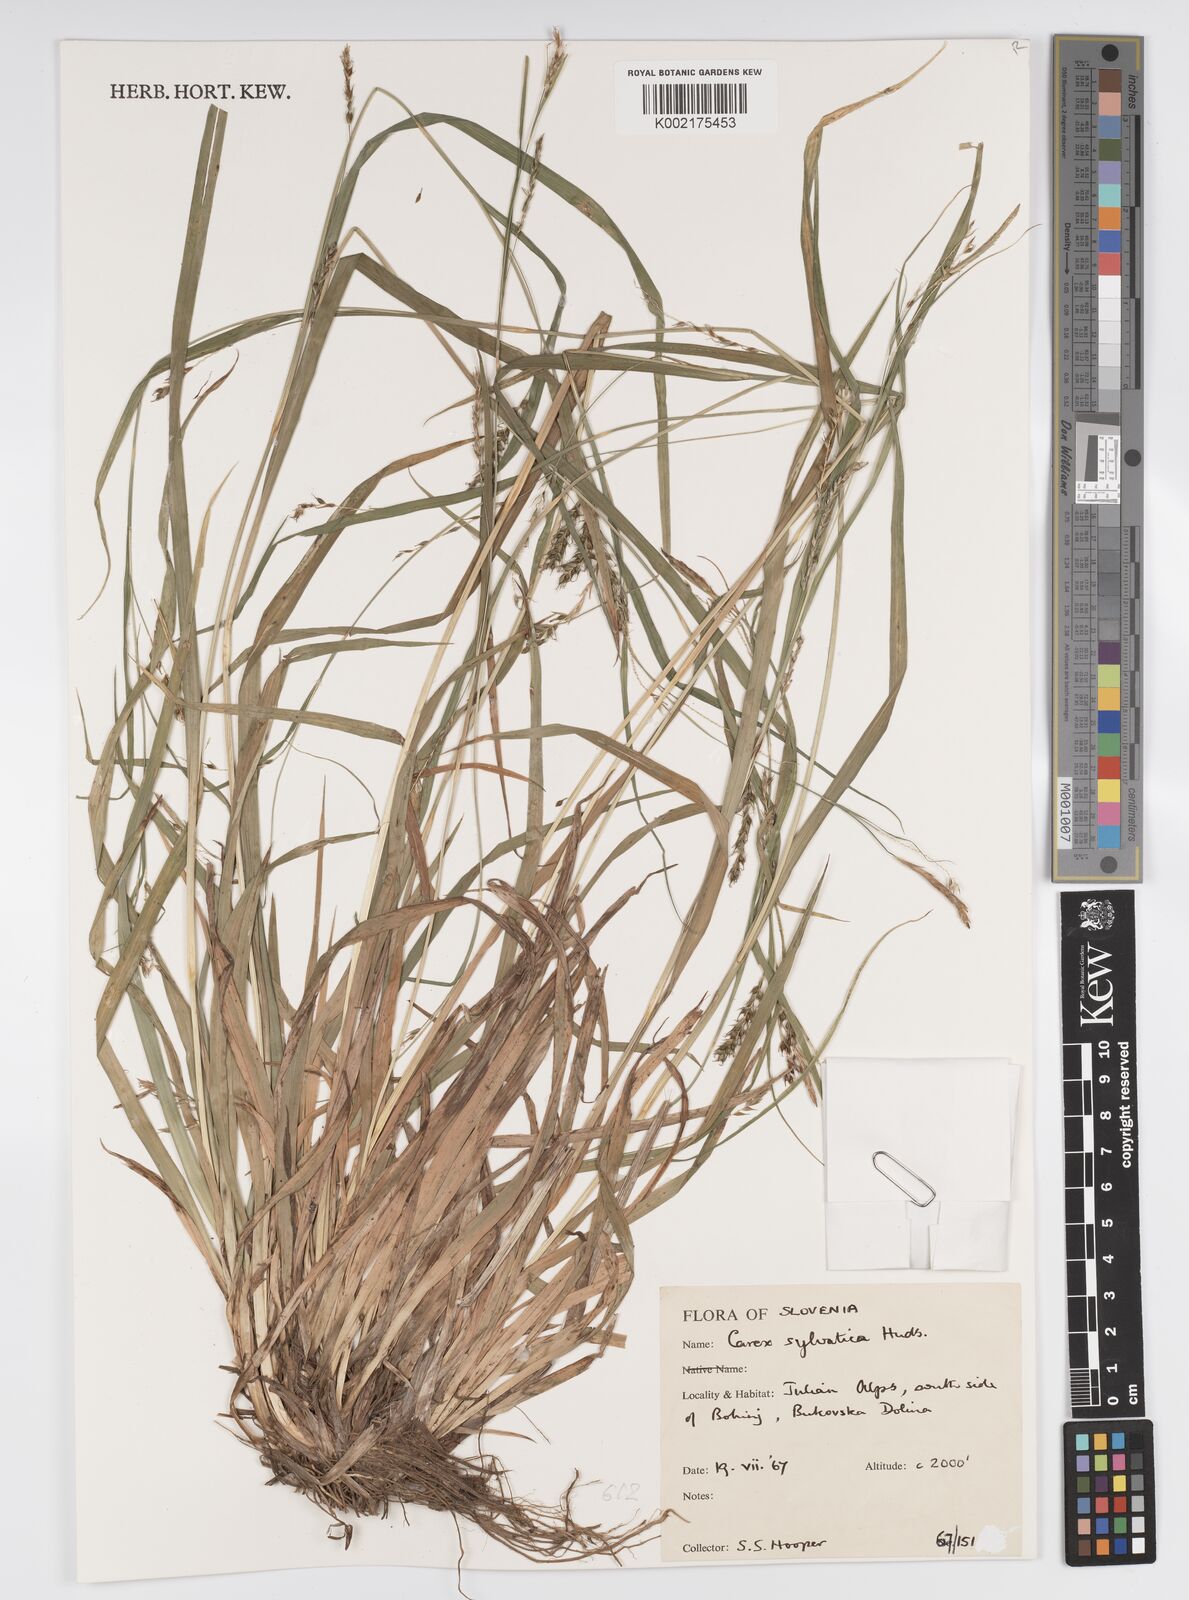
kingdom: Plantae
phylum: Tracheophyta
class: Liliopsida
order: Poales
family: Cyperaceae
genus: Carex
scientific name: Carex sylvatica
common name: Wood-sedge
